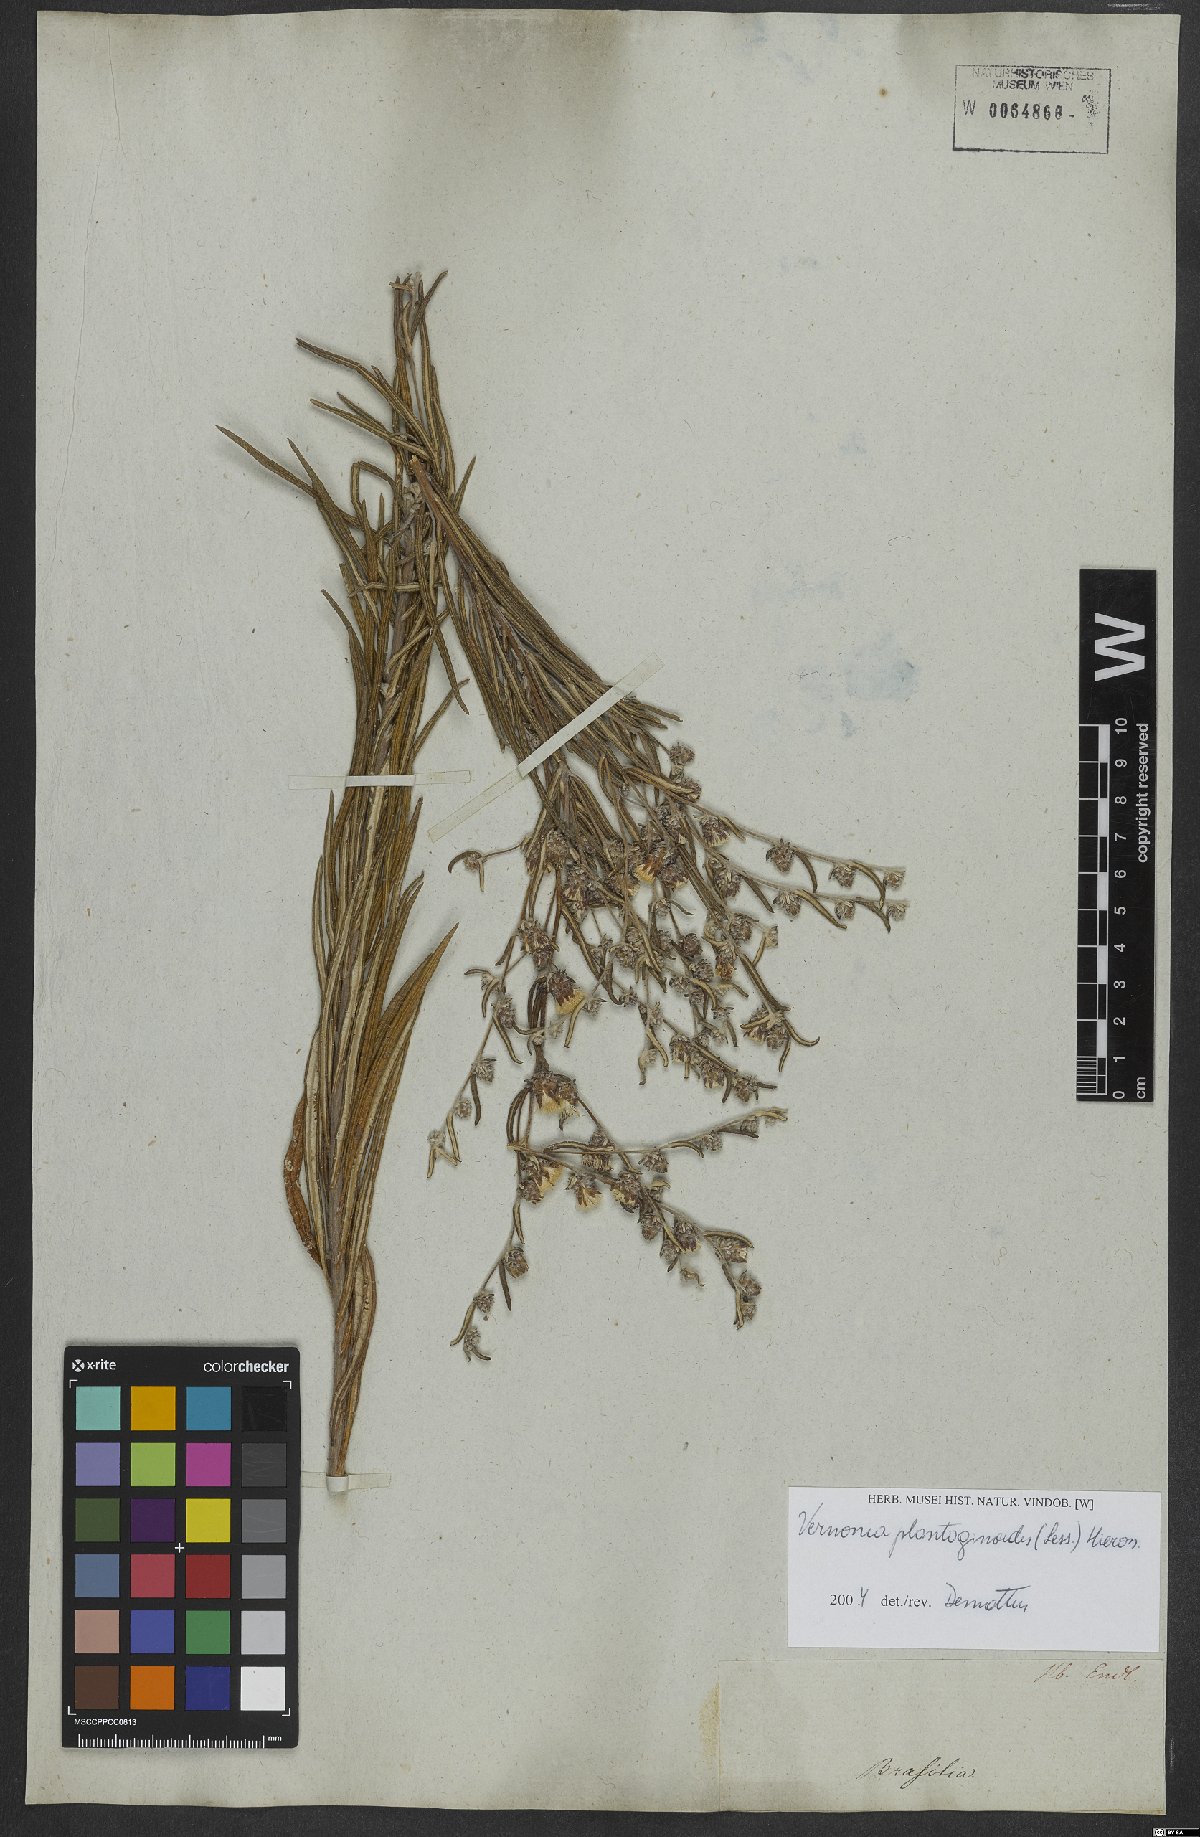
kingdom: Plantae
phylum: Tracheophyta
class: Magnoliopsida
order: Asterales
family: Asteraceae
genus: Lessingianthus
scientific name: Lessingianthus plantaginoides
